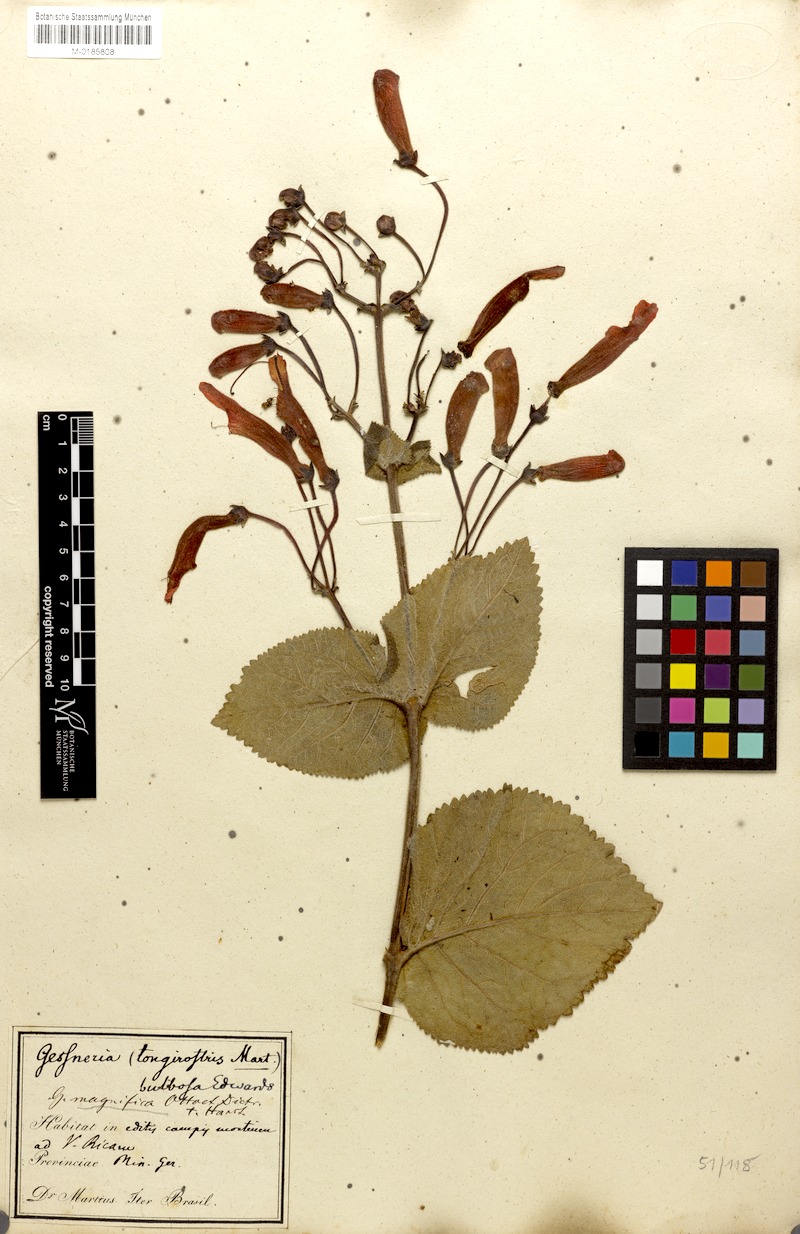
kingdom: Plantae
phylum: Tracheophyta
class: Magnoliopsida
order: Lamiales
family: Gesneriaceae
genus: Sinningia
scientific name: Sinningia magnifica
